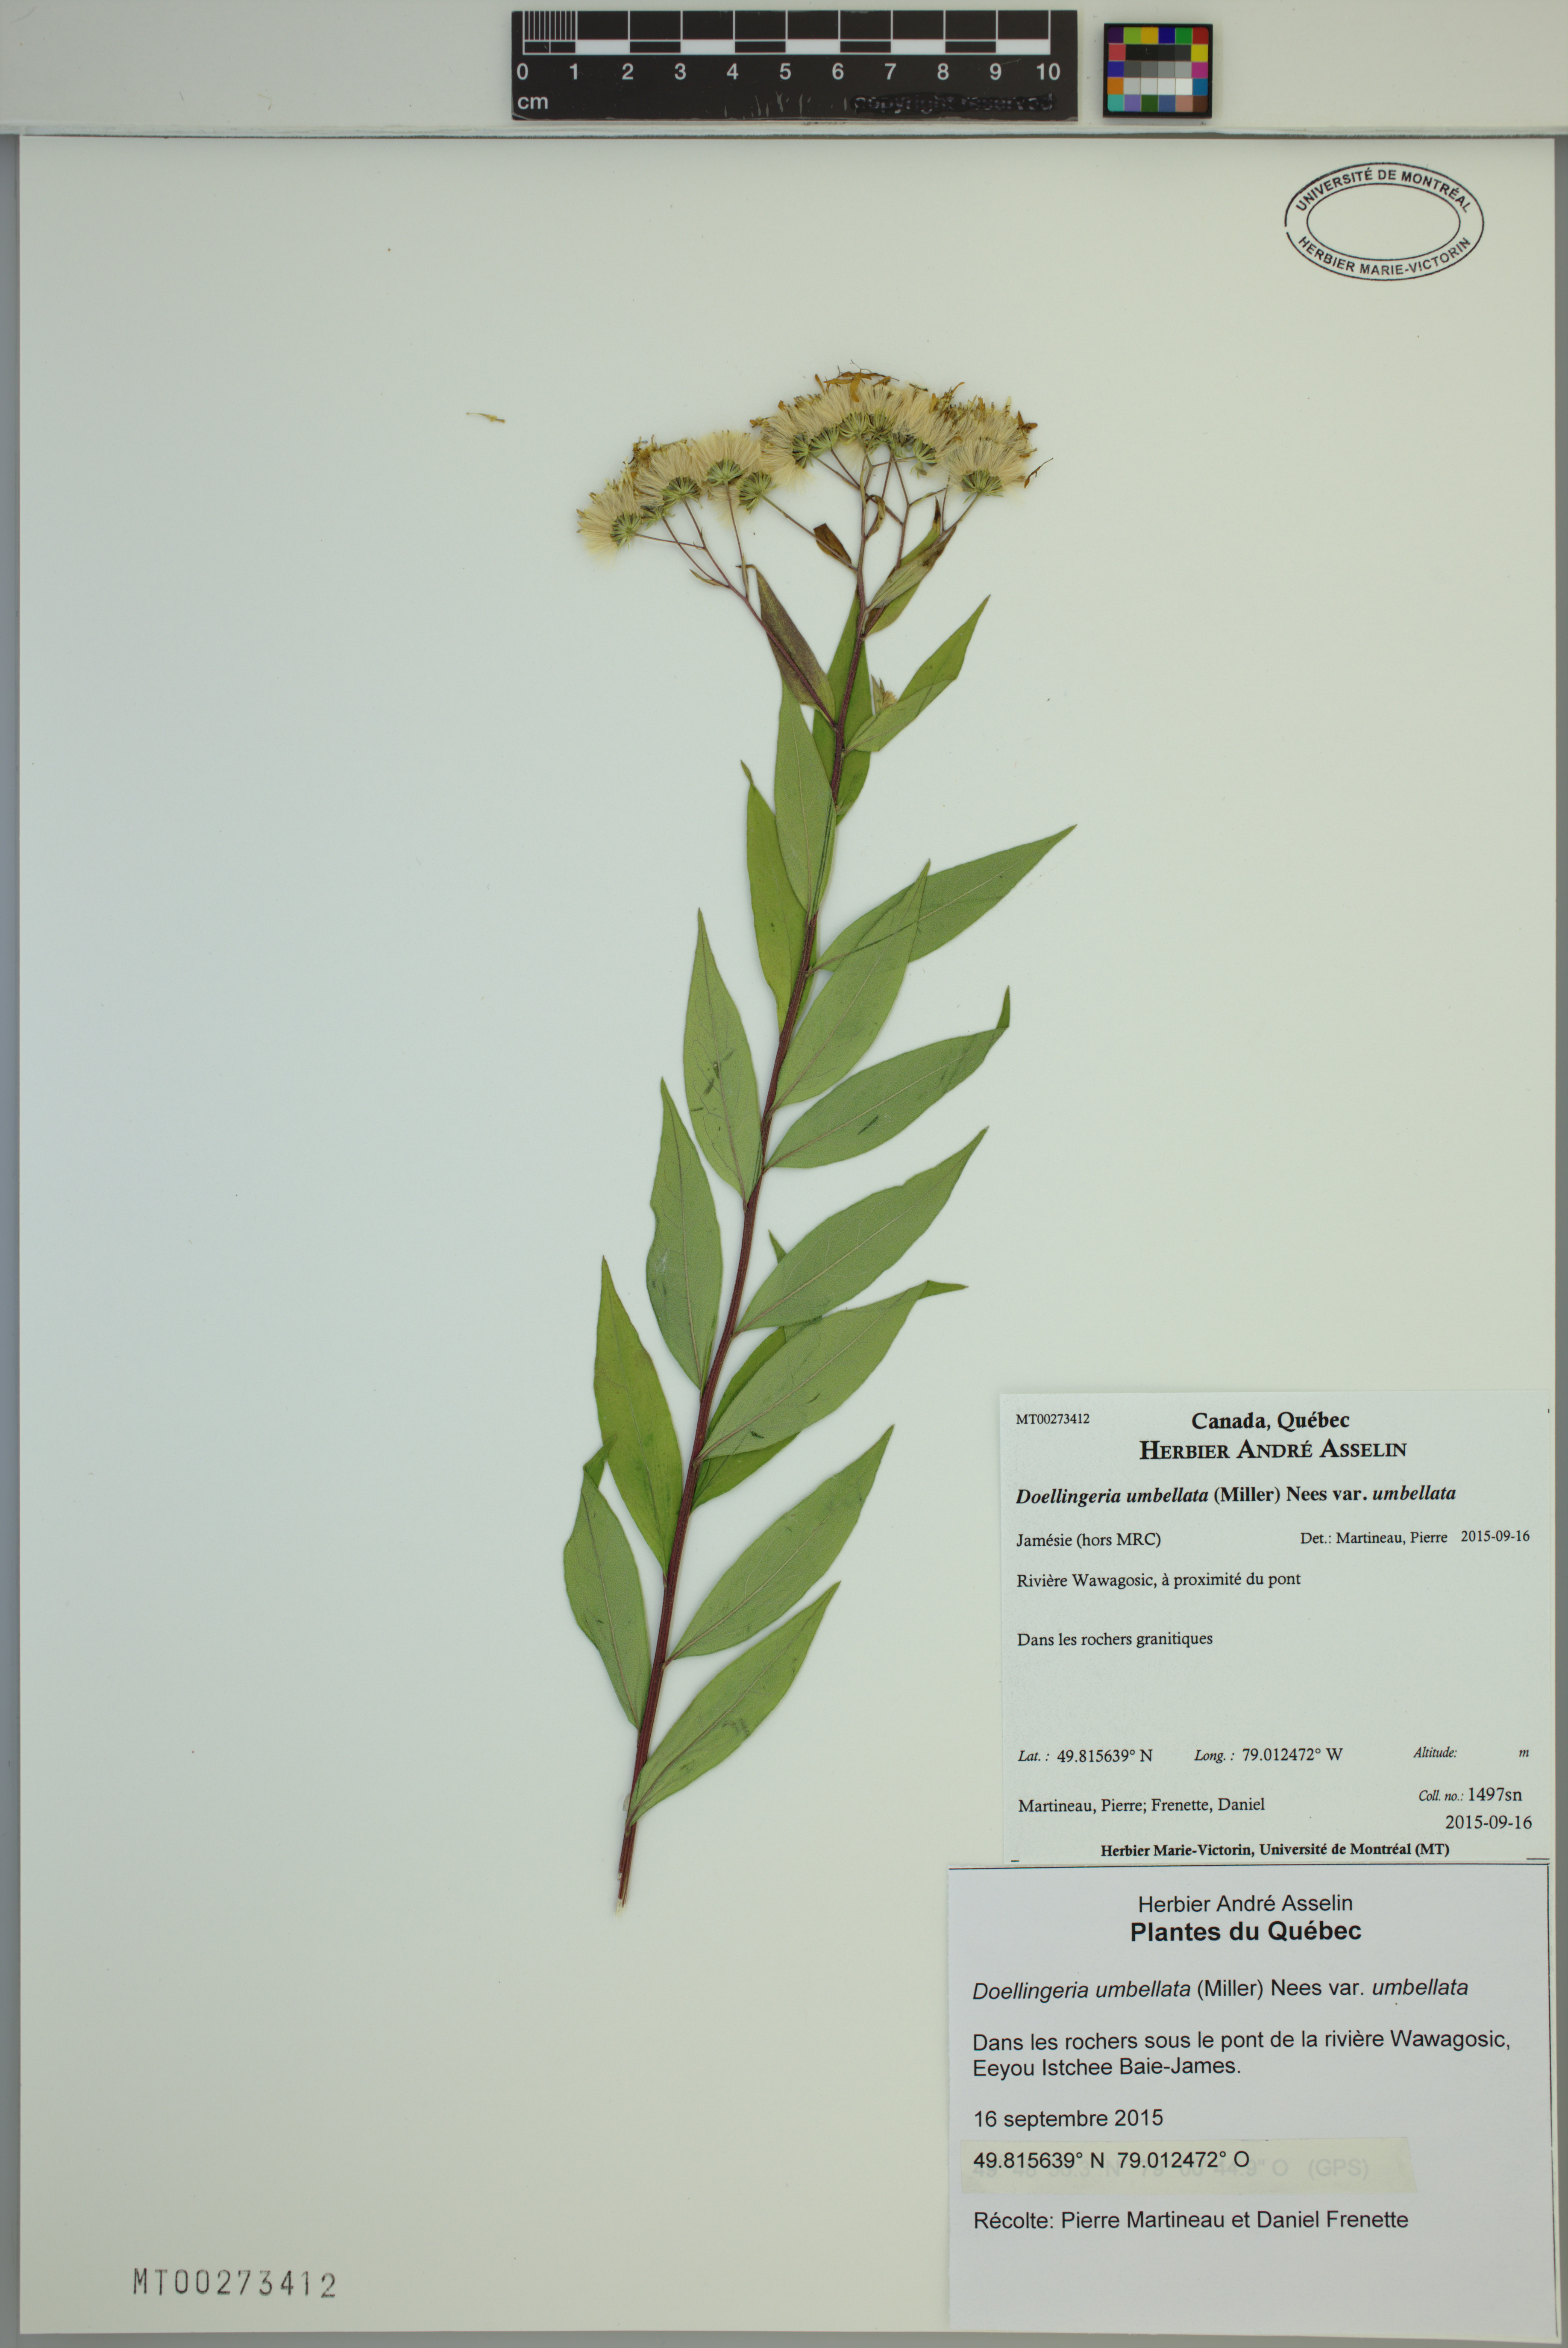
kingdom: Plantae
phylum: Tracheophyta
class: Magnoliopsida
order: Asterales
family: Asteraceae
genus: Doellingeria
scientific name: Doellingeria umbellata
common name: Flat-top white aster
